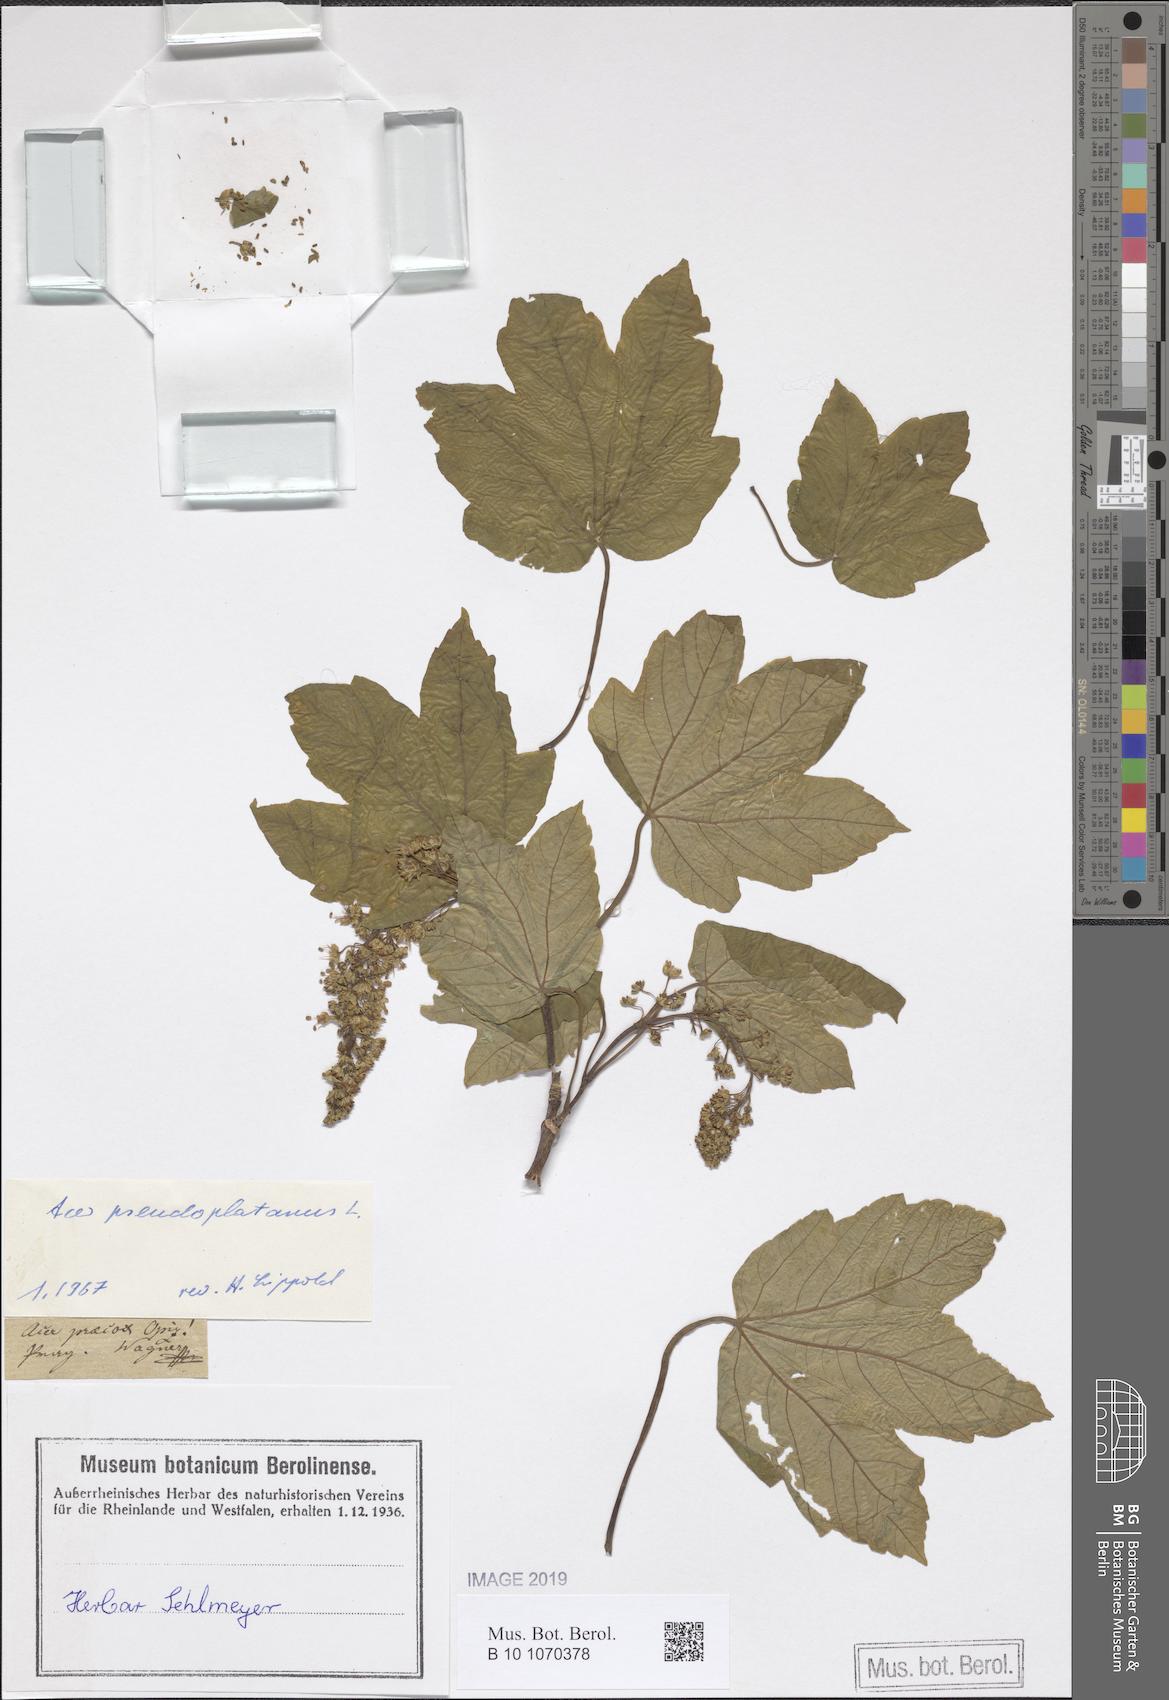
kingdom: Plantae
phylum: Tracheophyta
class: Magnoliopsida
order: Sapindales
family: Sapindaceae
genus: Acer
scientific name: Acer pseudoplatanus
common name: Sycamore
